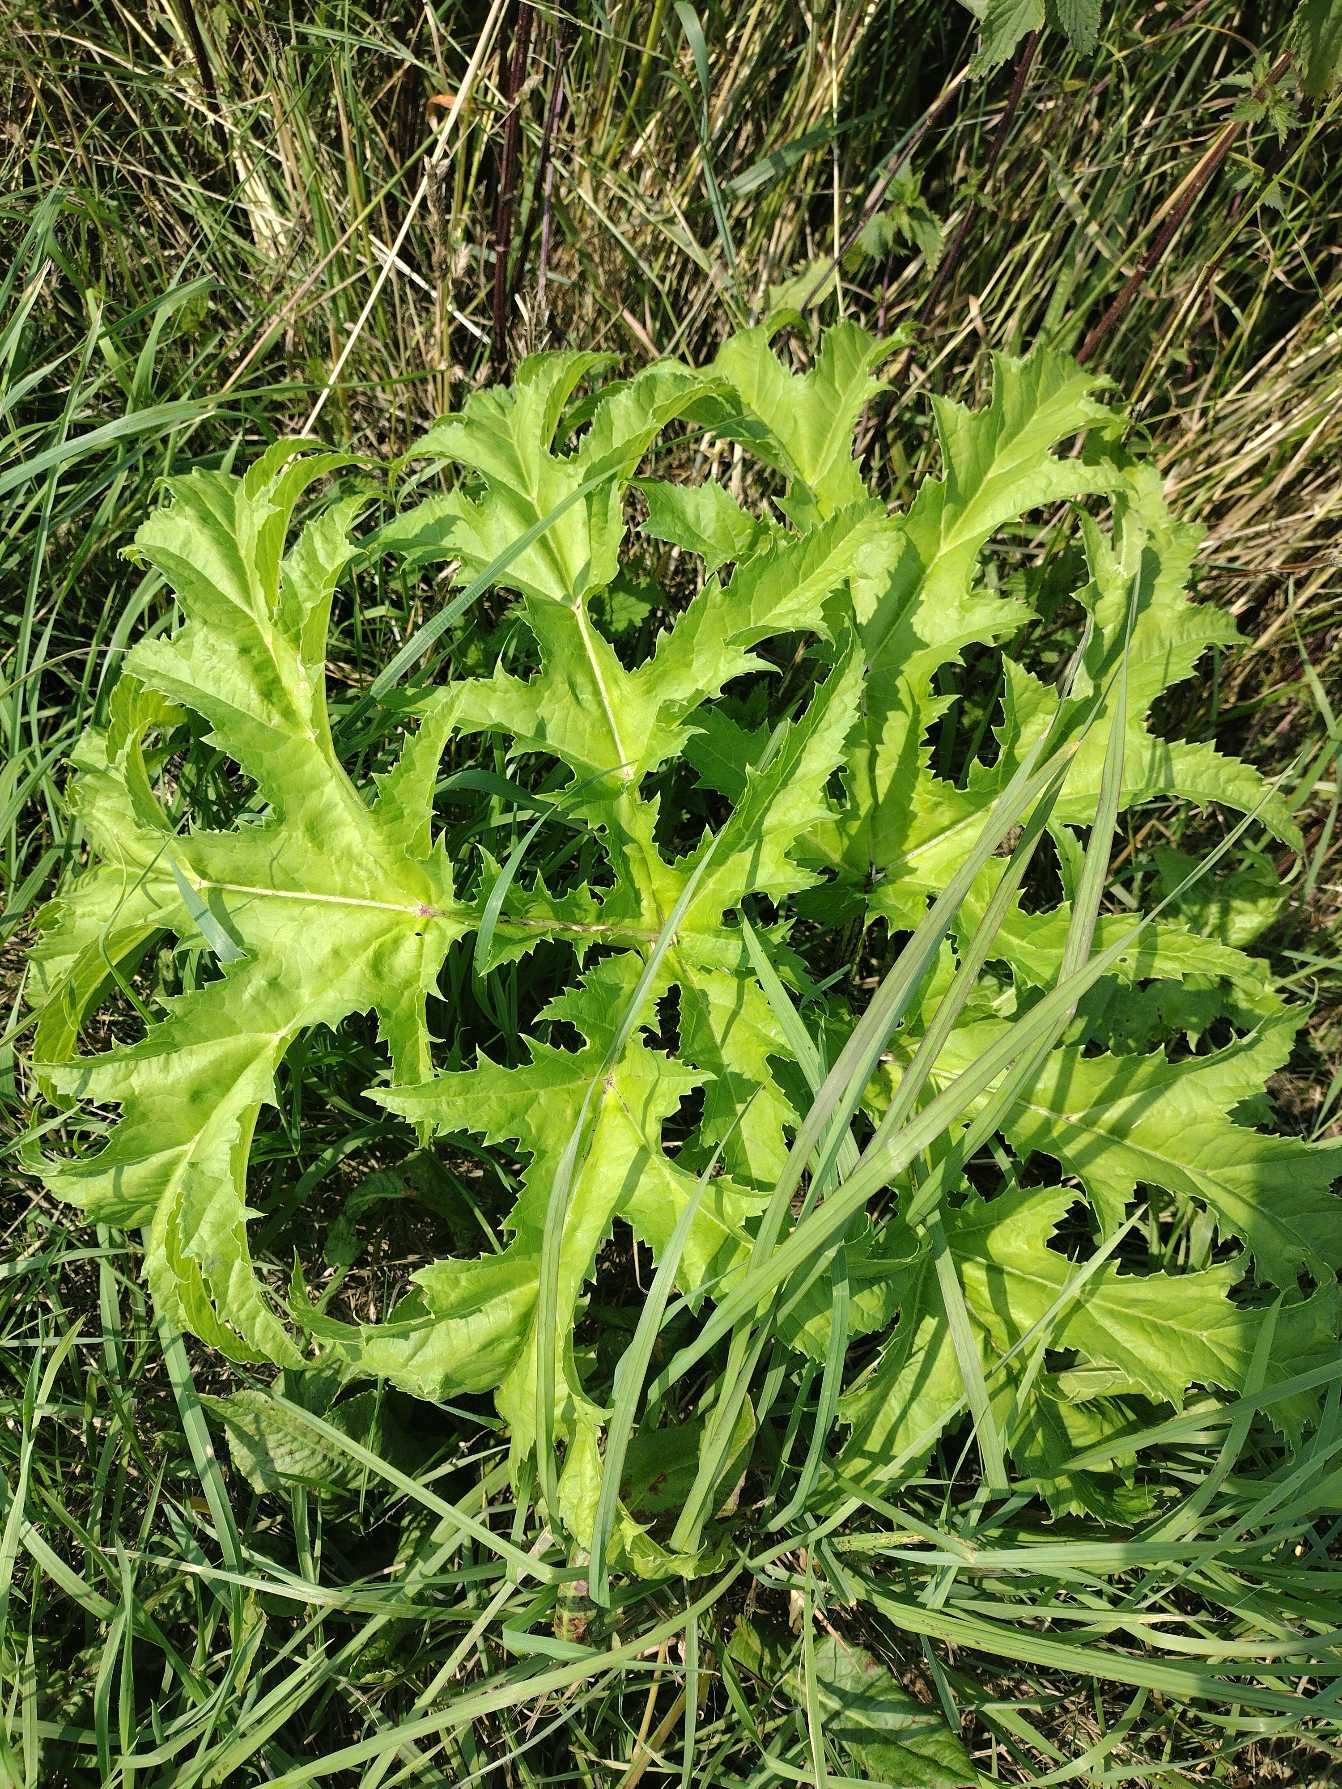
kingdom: Plantae
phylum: Tracheophyta
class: Magnoliopsida
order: Apiales
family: Apiaceae
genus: Heracleum
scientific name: Heracleum mantegazzianum
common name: Kæmpe-bjørneklo
